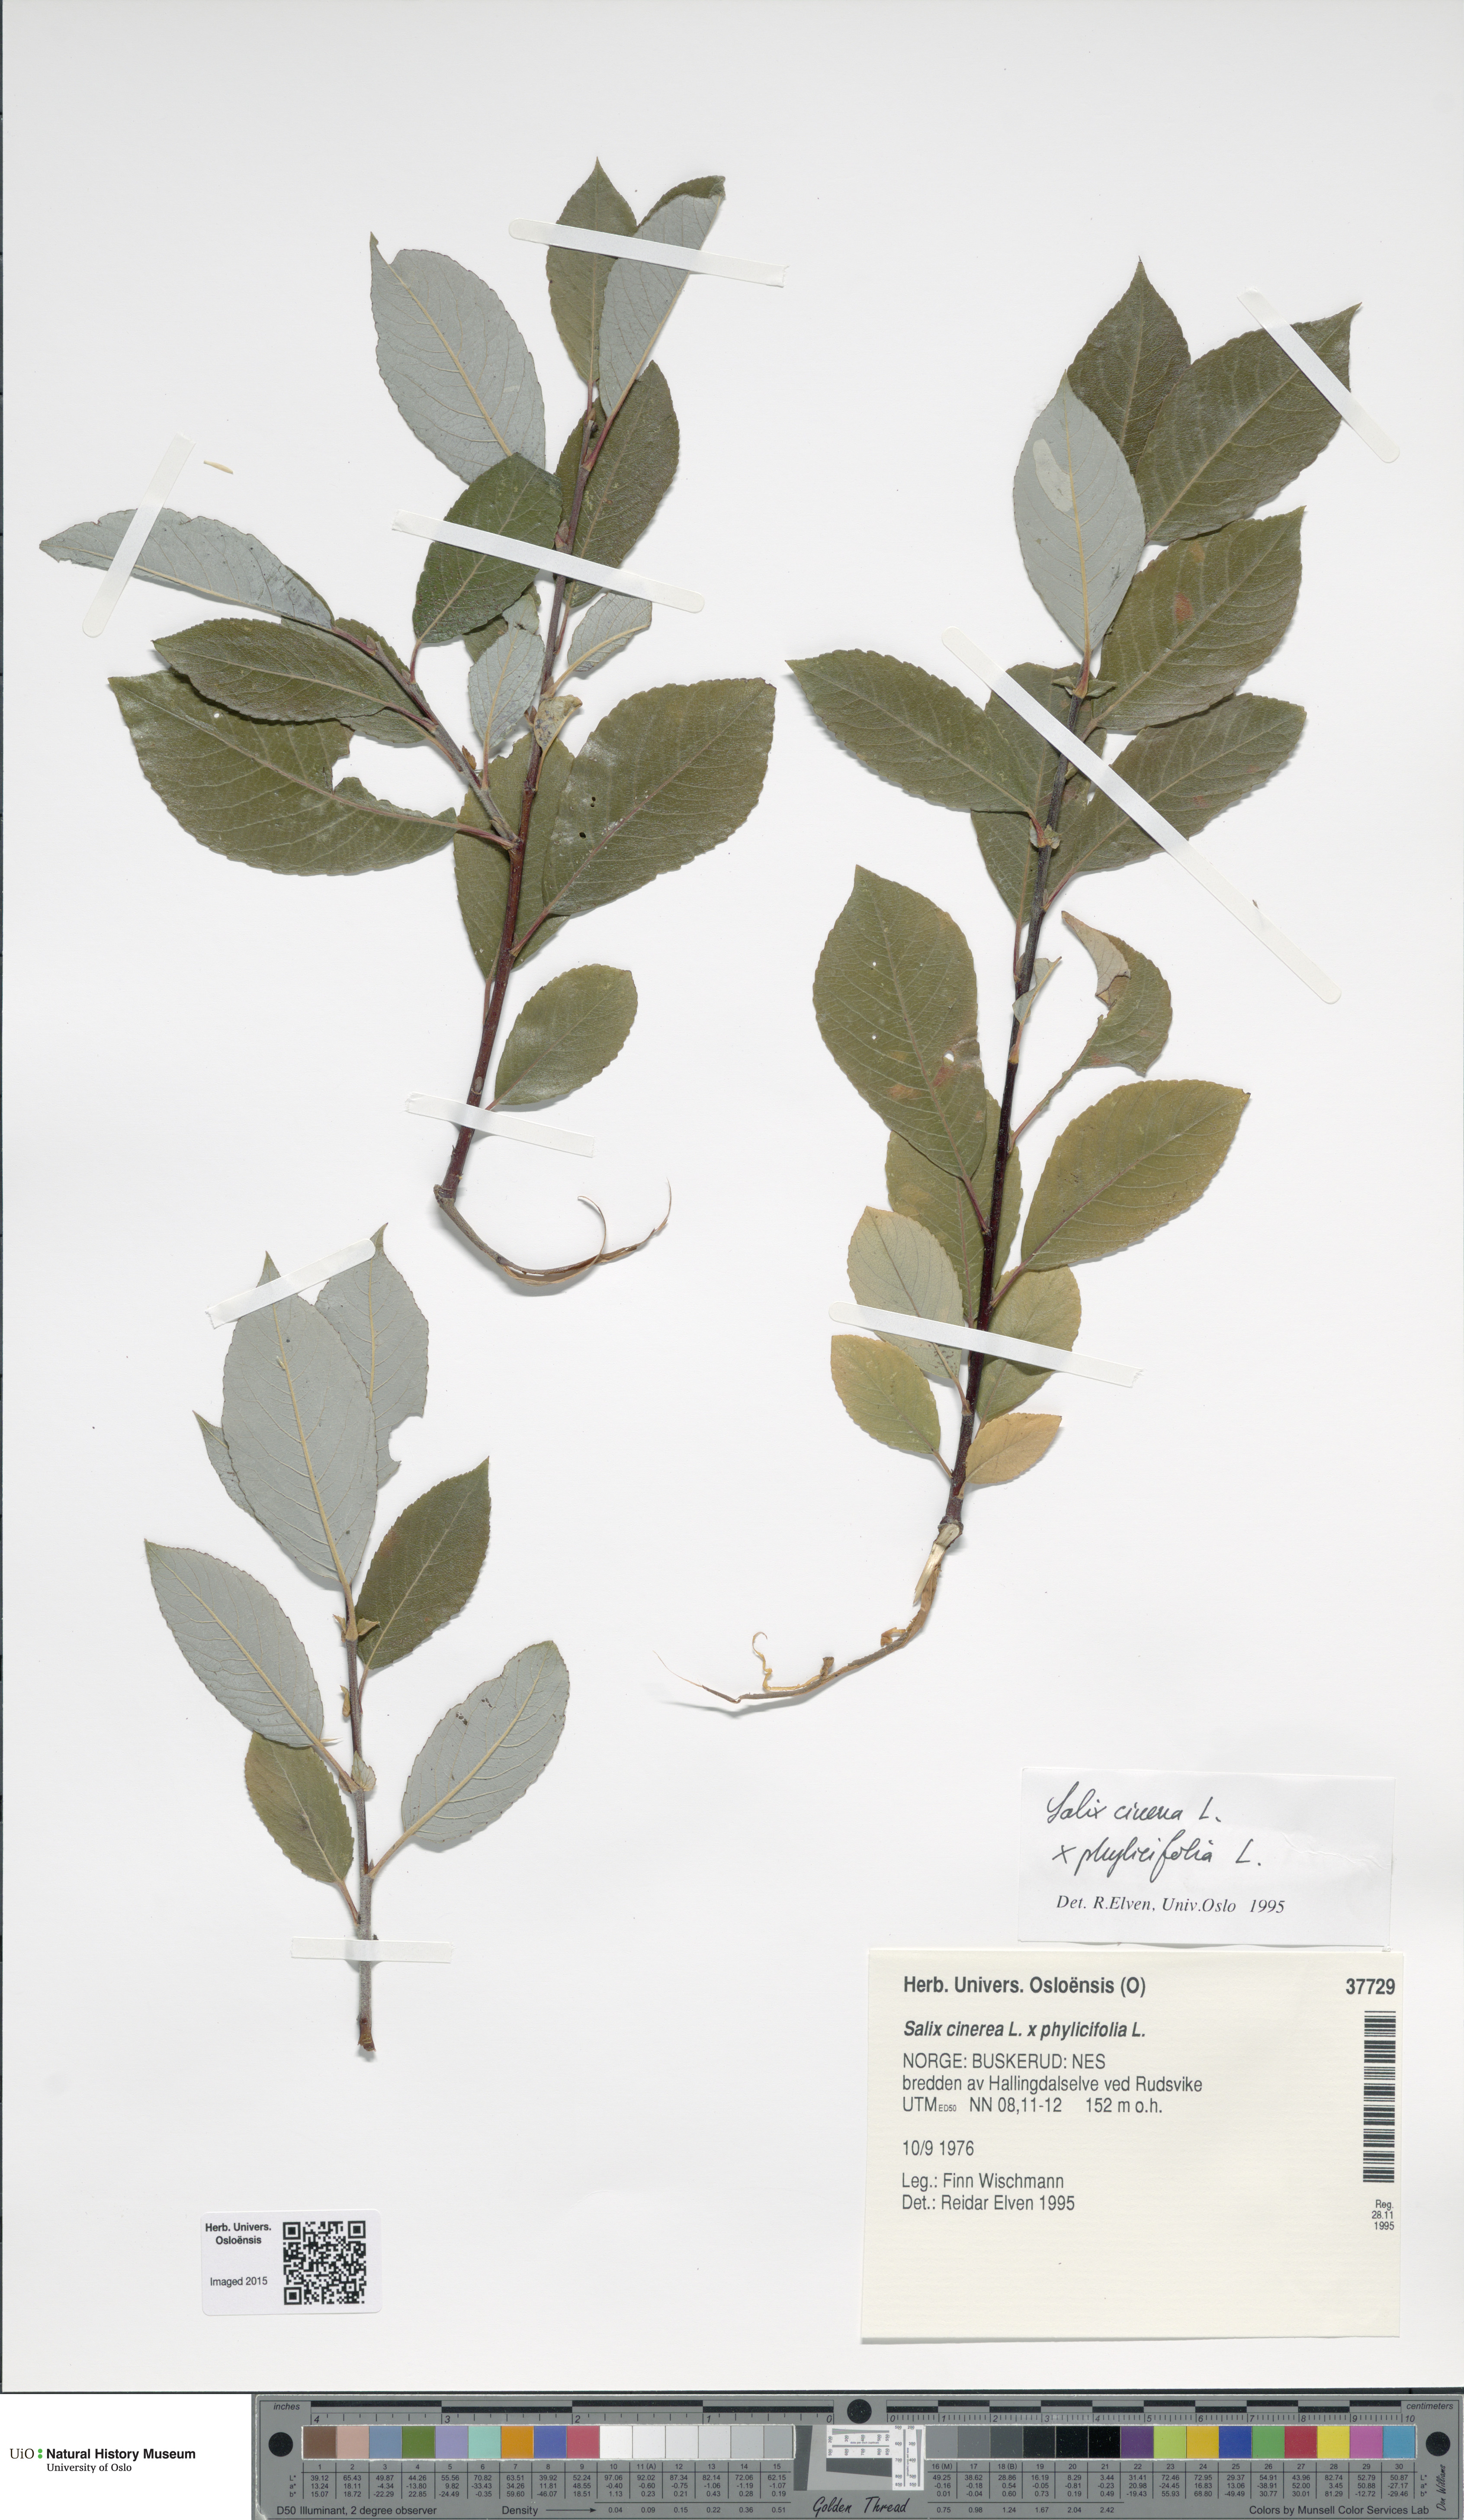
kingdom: Plantae
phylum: Tracheophyta
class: Magnoliopsida
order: Malpighiales
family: Salicaceae
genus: Salix
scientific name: Salix
